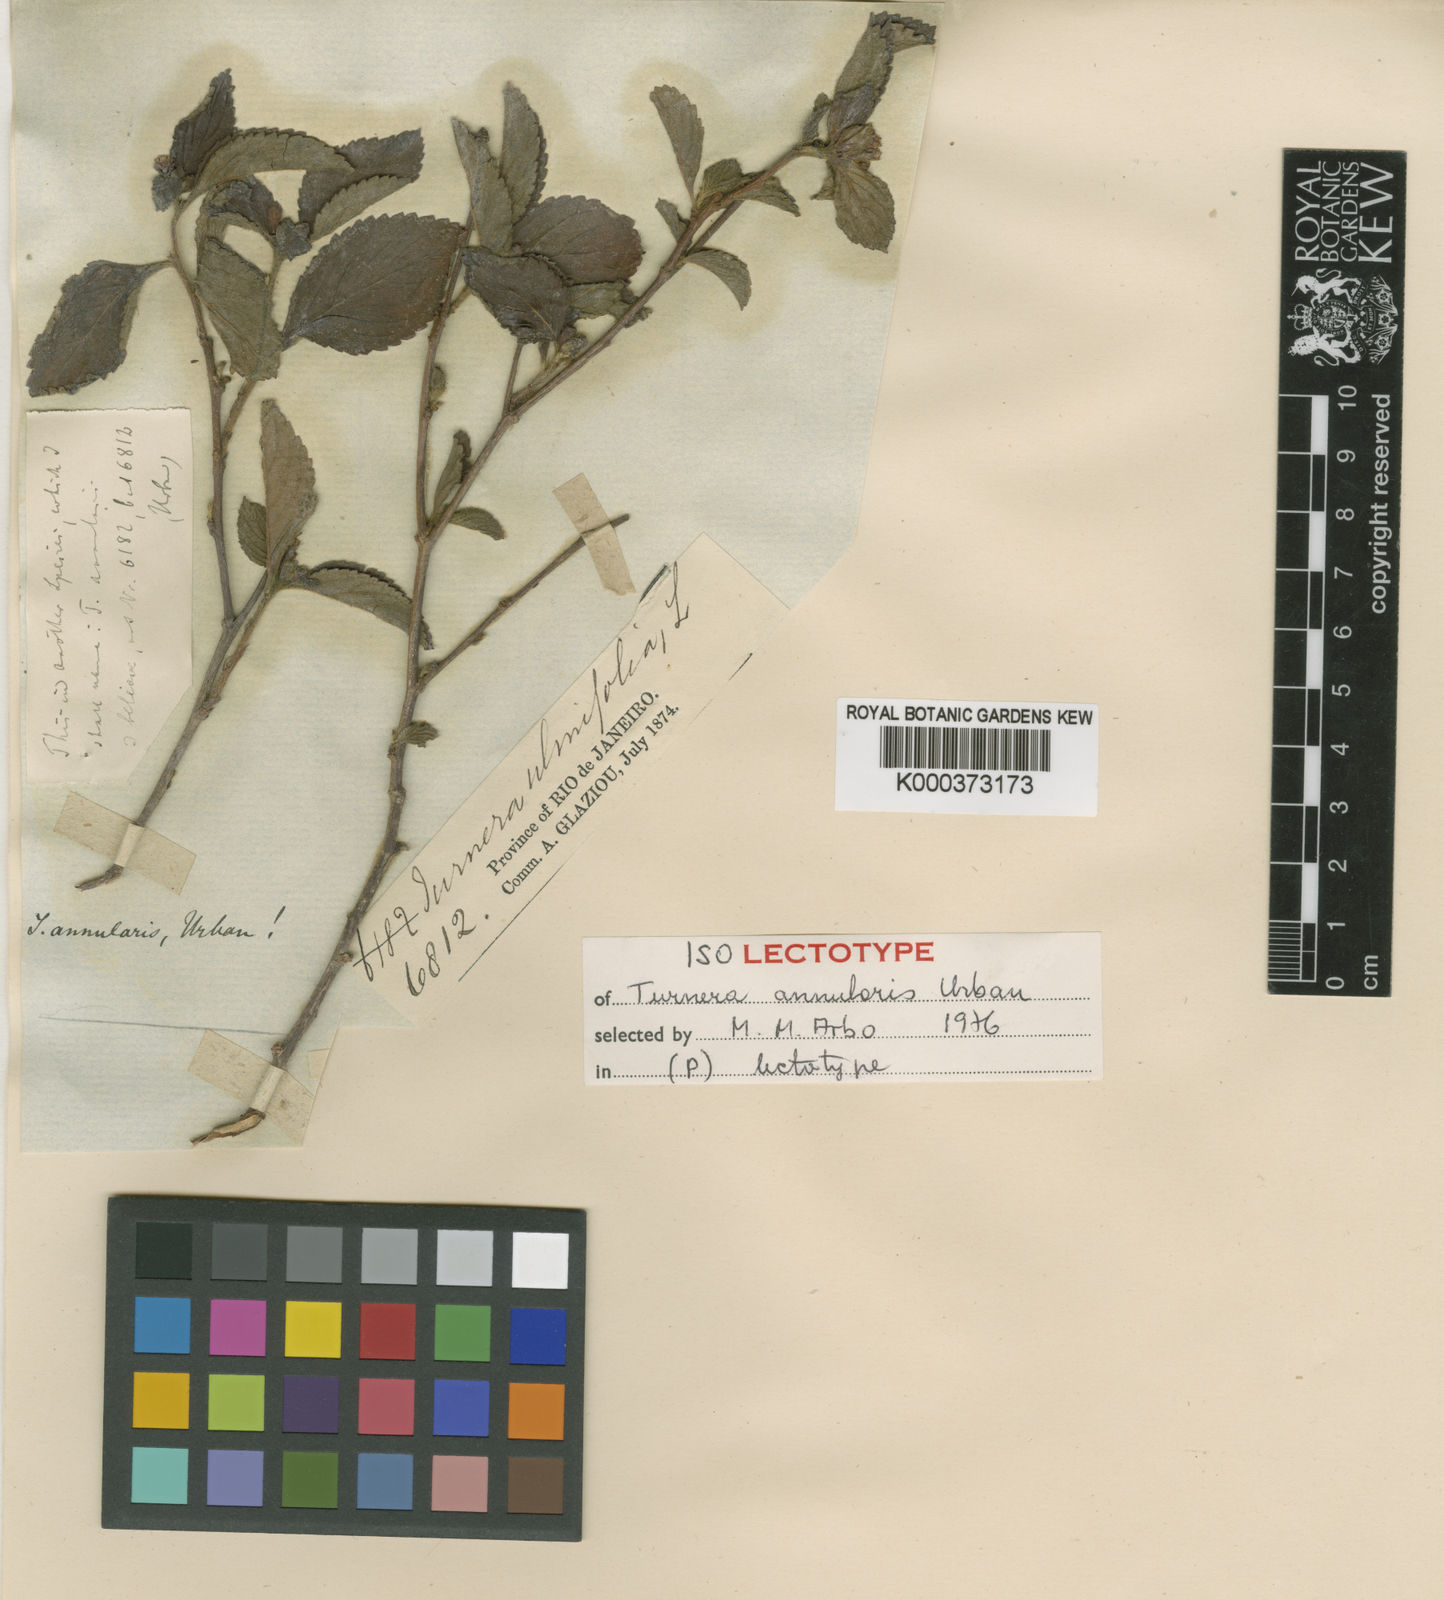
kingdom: Plantae
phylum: Tracheophyta
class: Magnoliopsida
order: Malpighiales
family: Turneraceae
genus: Oxossia
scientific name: Oxossia annularis
